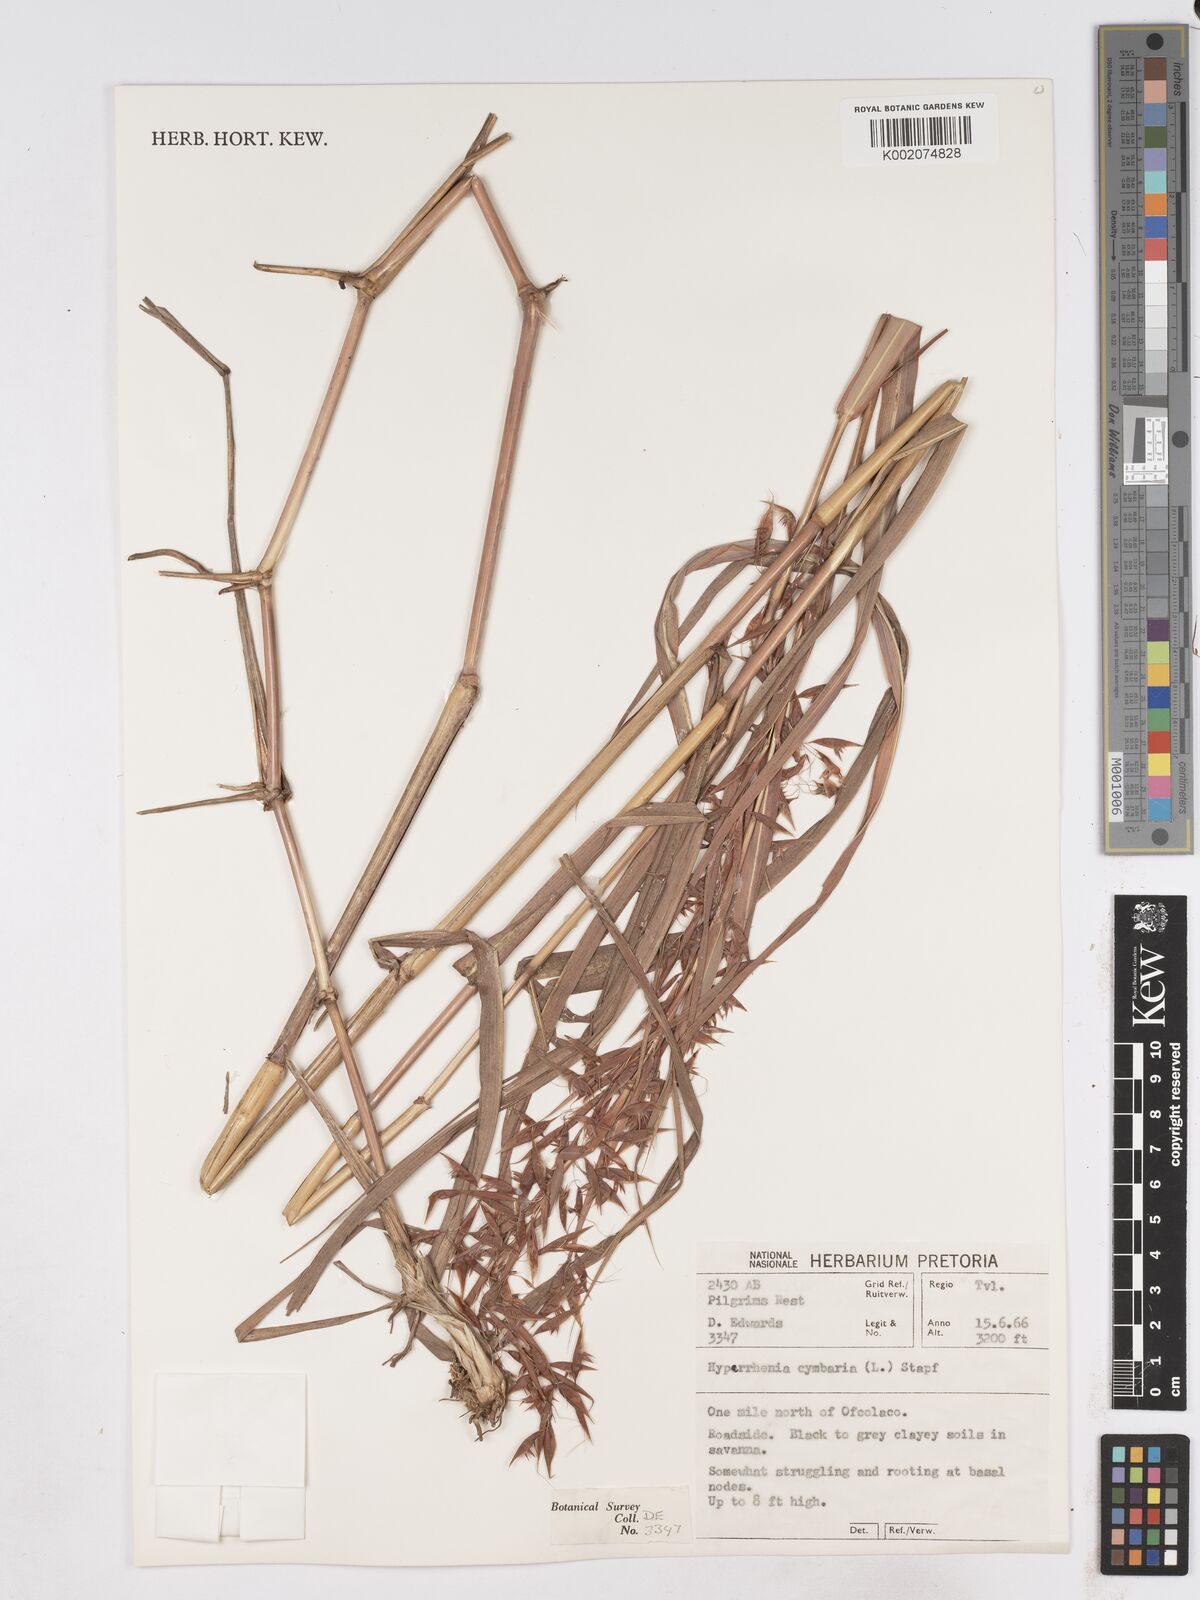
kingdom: Plantae
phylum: Tracheophyta
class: Liliopsida
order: Poales
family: Poaceae
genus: Hyparrhenia
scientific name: Hyparrhenia cymbaria
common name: Boat thatching grass
